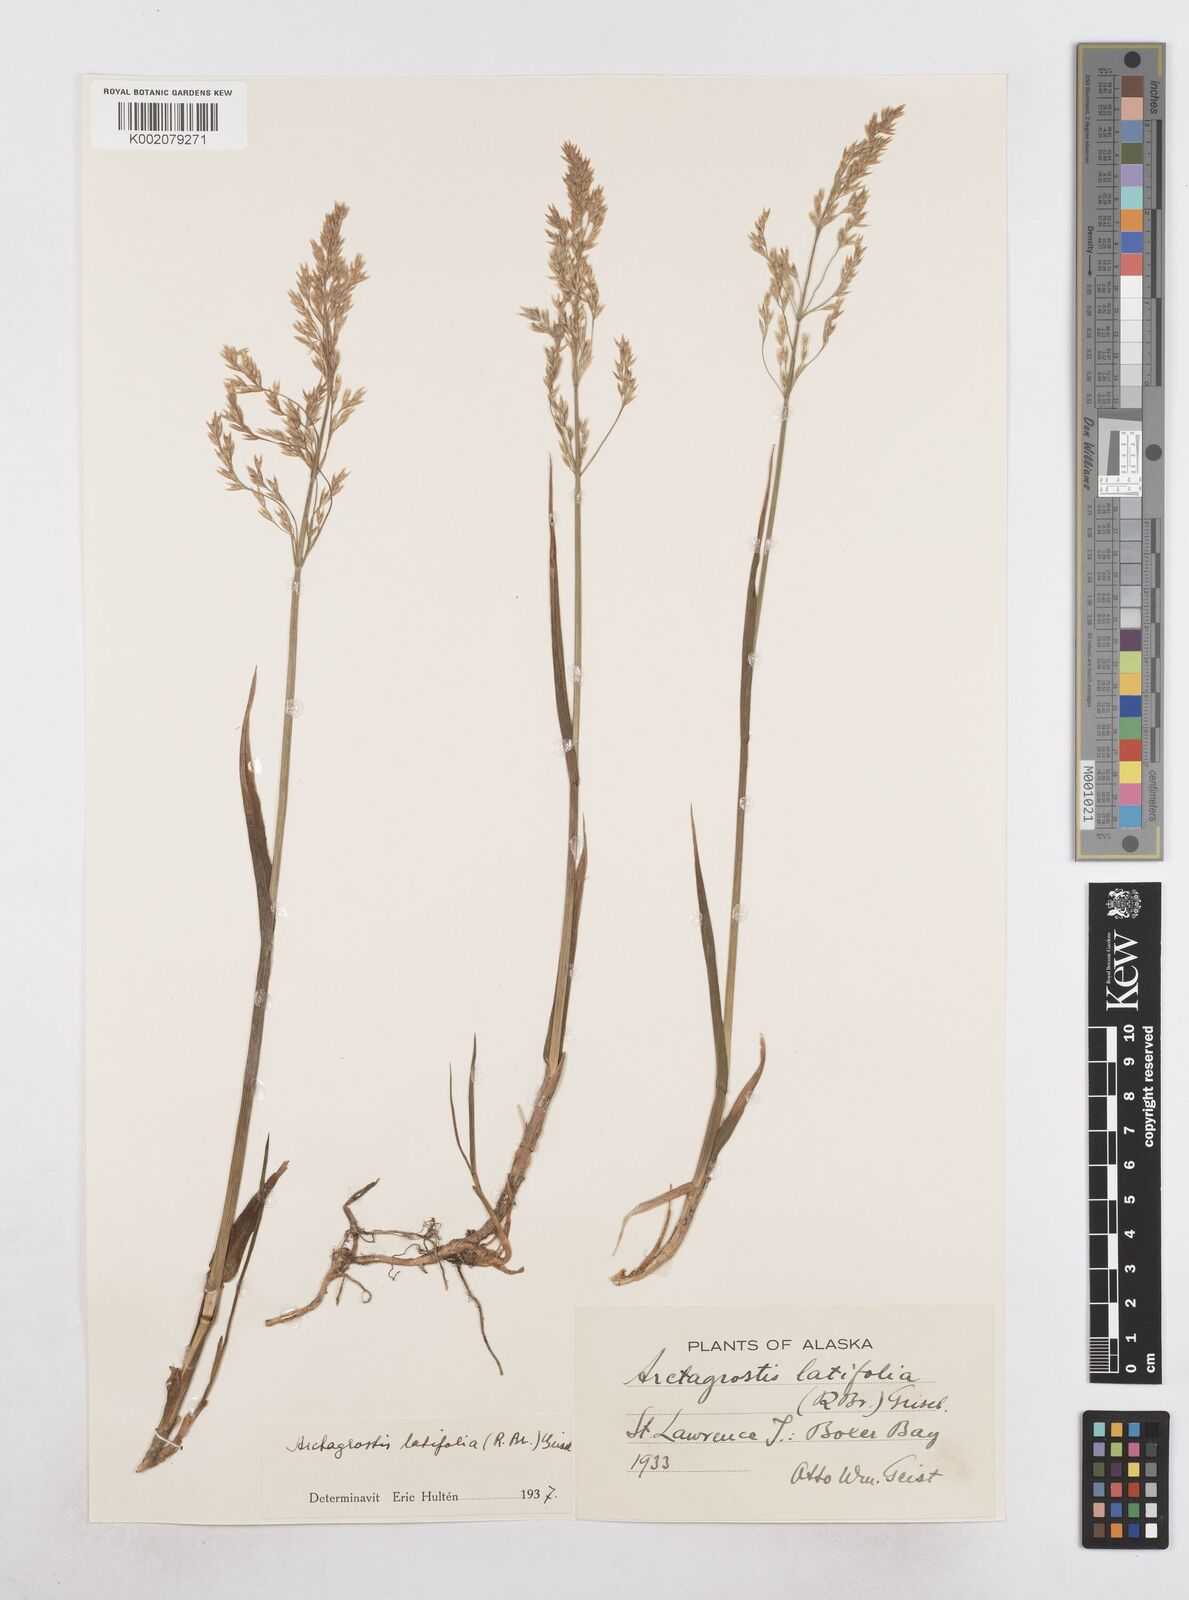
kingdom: Plantae
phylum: Tracheophyta
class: Liliopsida
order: Poales
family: Poaceae
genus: Arctagrostis
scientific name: Arctagrostis latifolia
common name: Arctic grass
